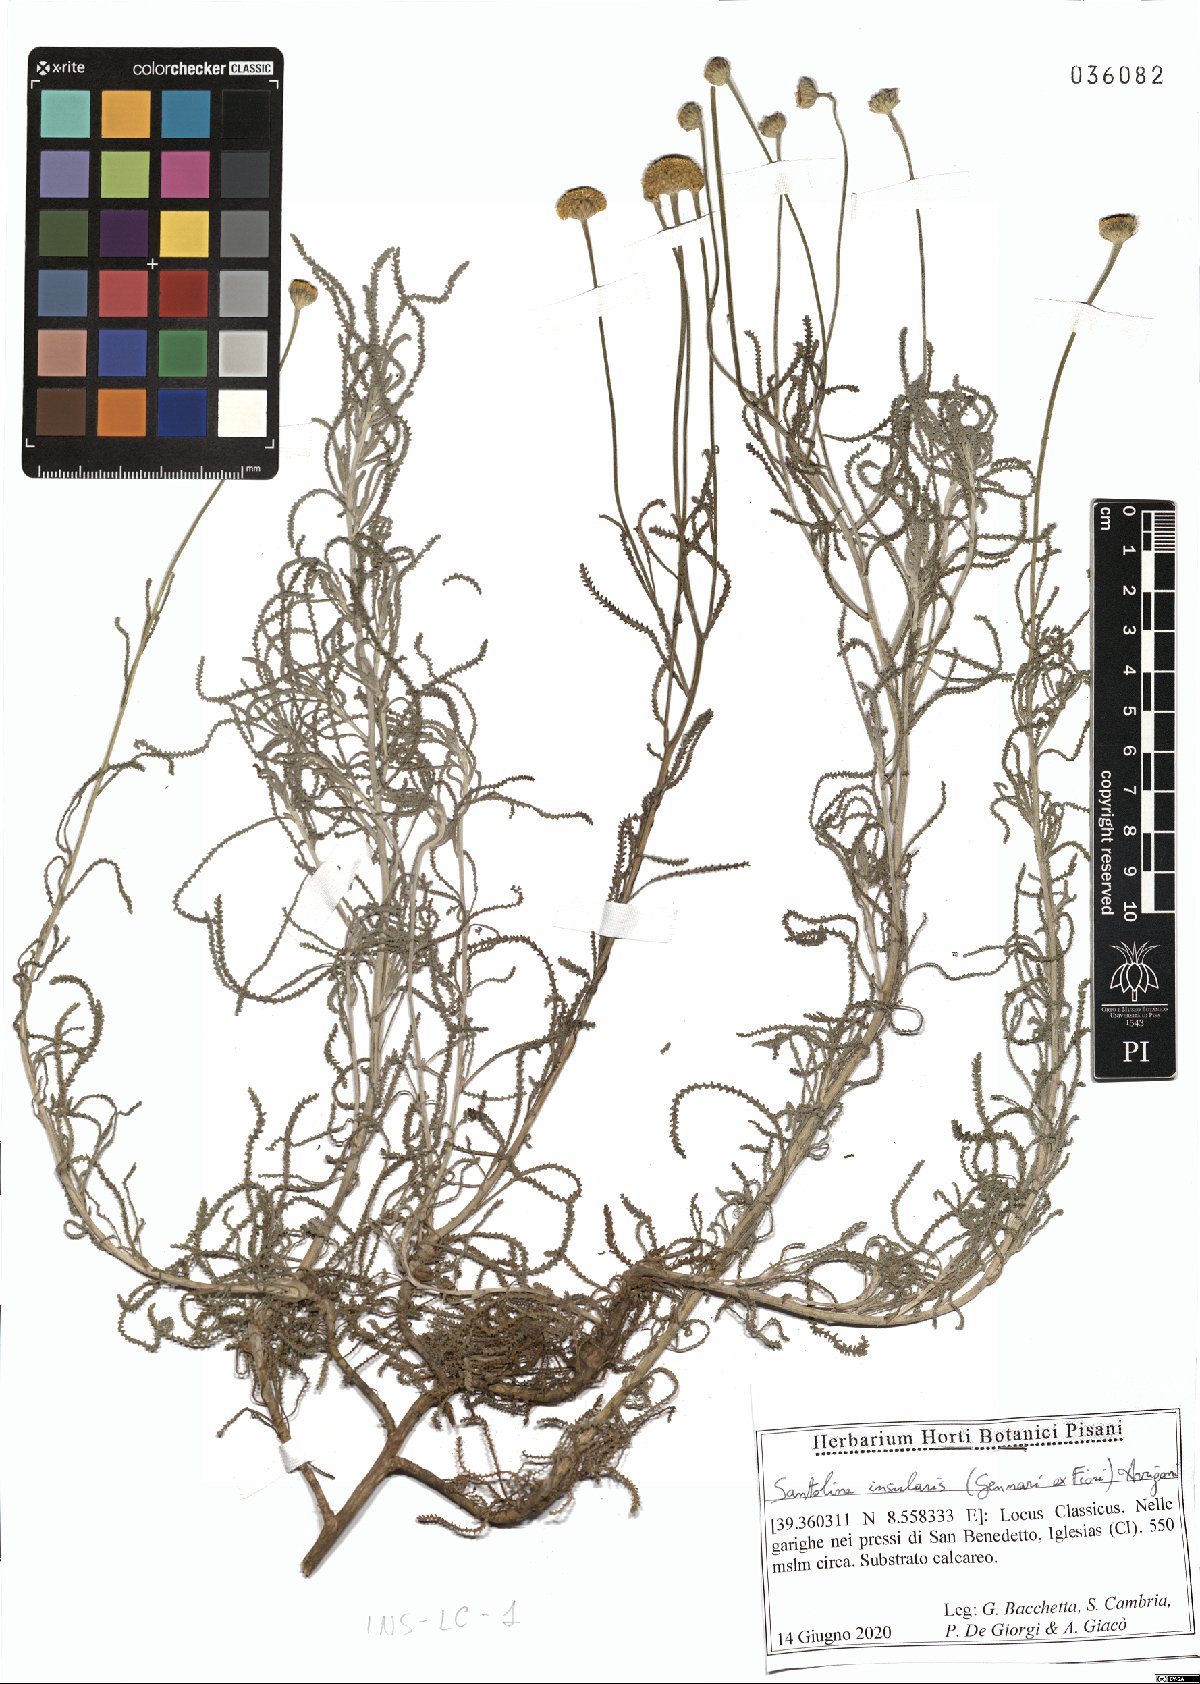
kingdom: Plantae
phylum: Tracheophyta
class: Magnoliopsida
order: Asterales
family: Asteraceae
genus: Santolina
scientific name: Santolina insularis
